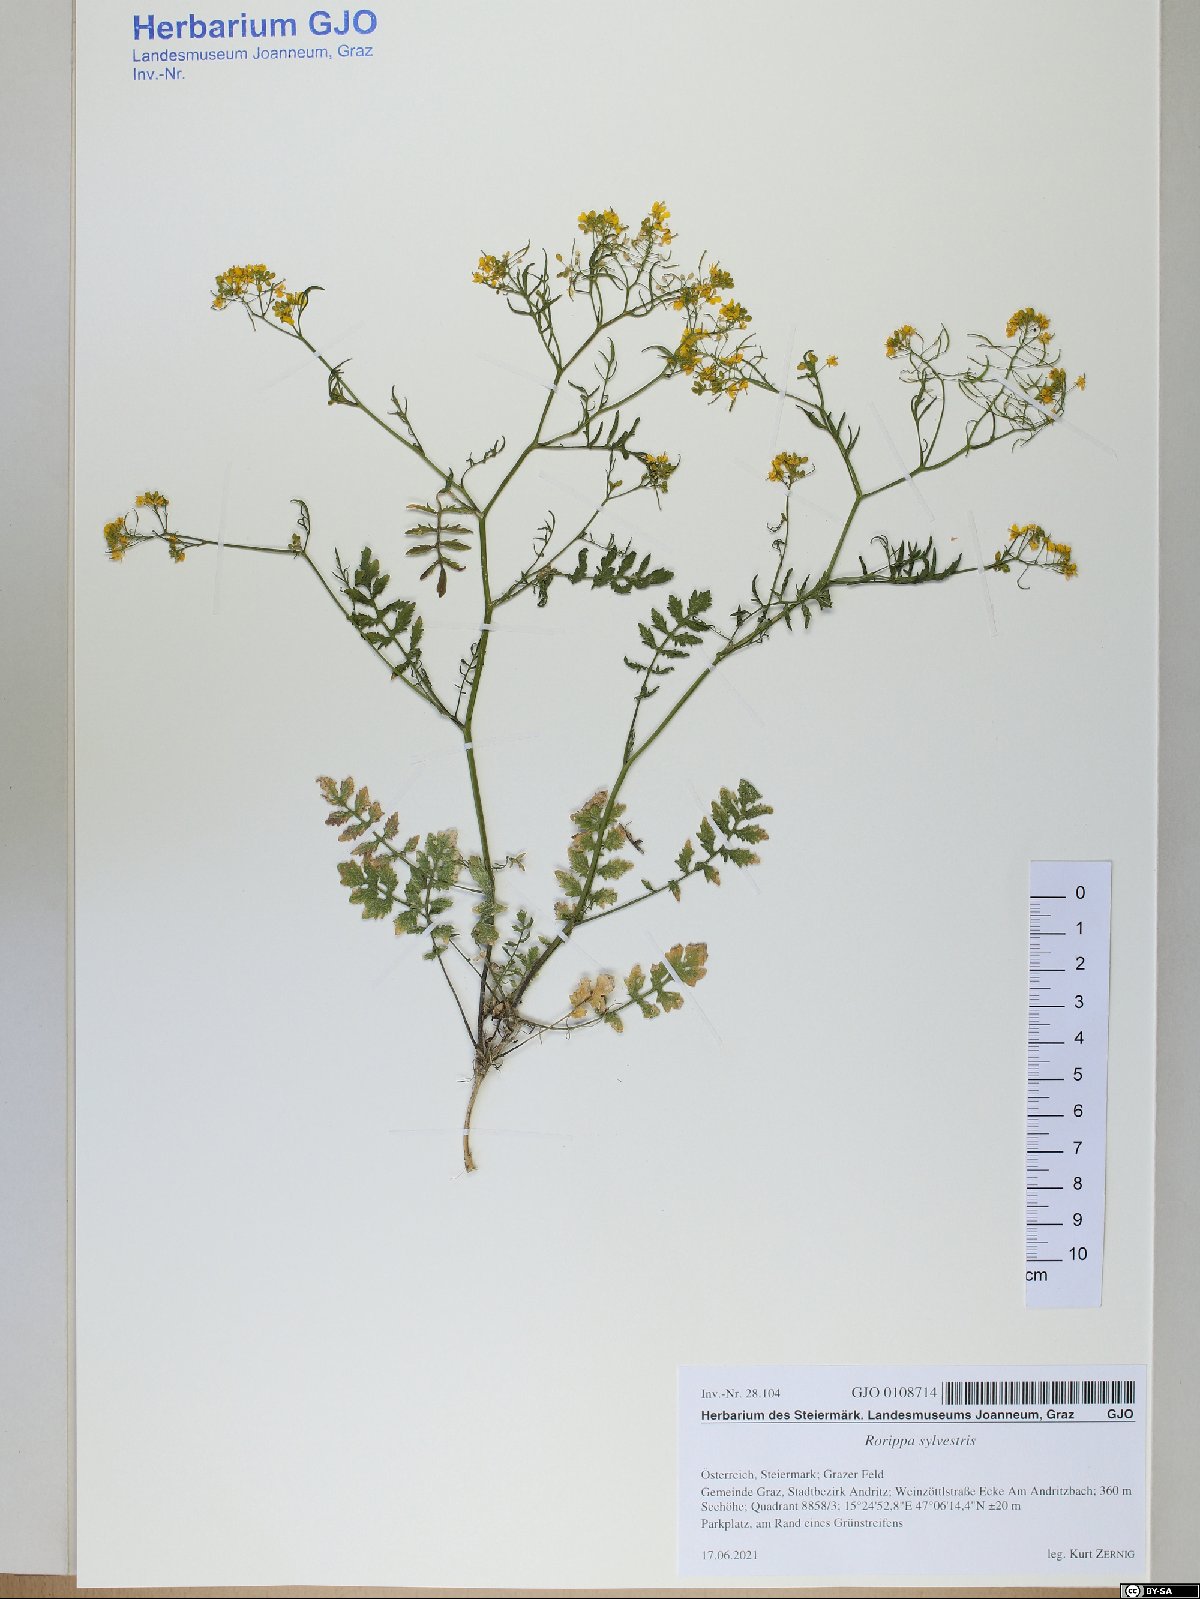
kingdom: Plantae
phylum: Tracheophyta
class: Magnoliopsida
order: Brassicales
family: Brassicaceae
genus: Rorippa
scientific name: Rorippa sylvestris
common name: Creeping yellowcress
